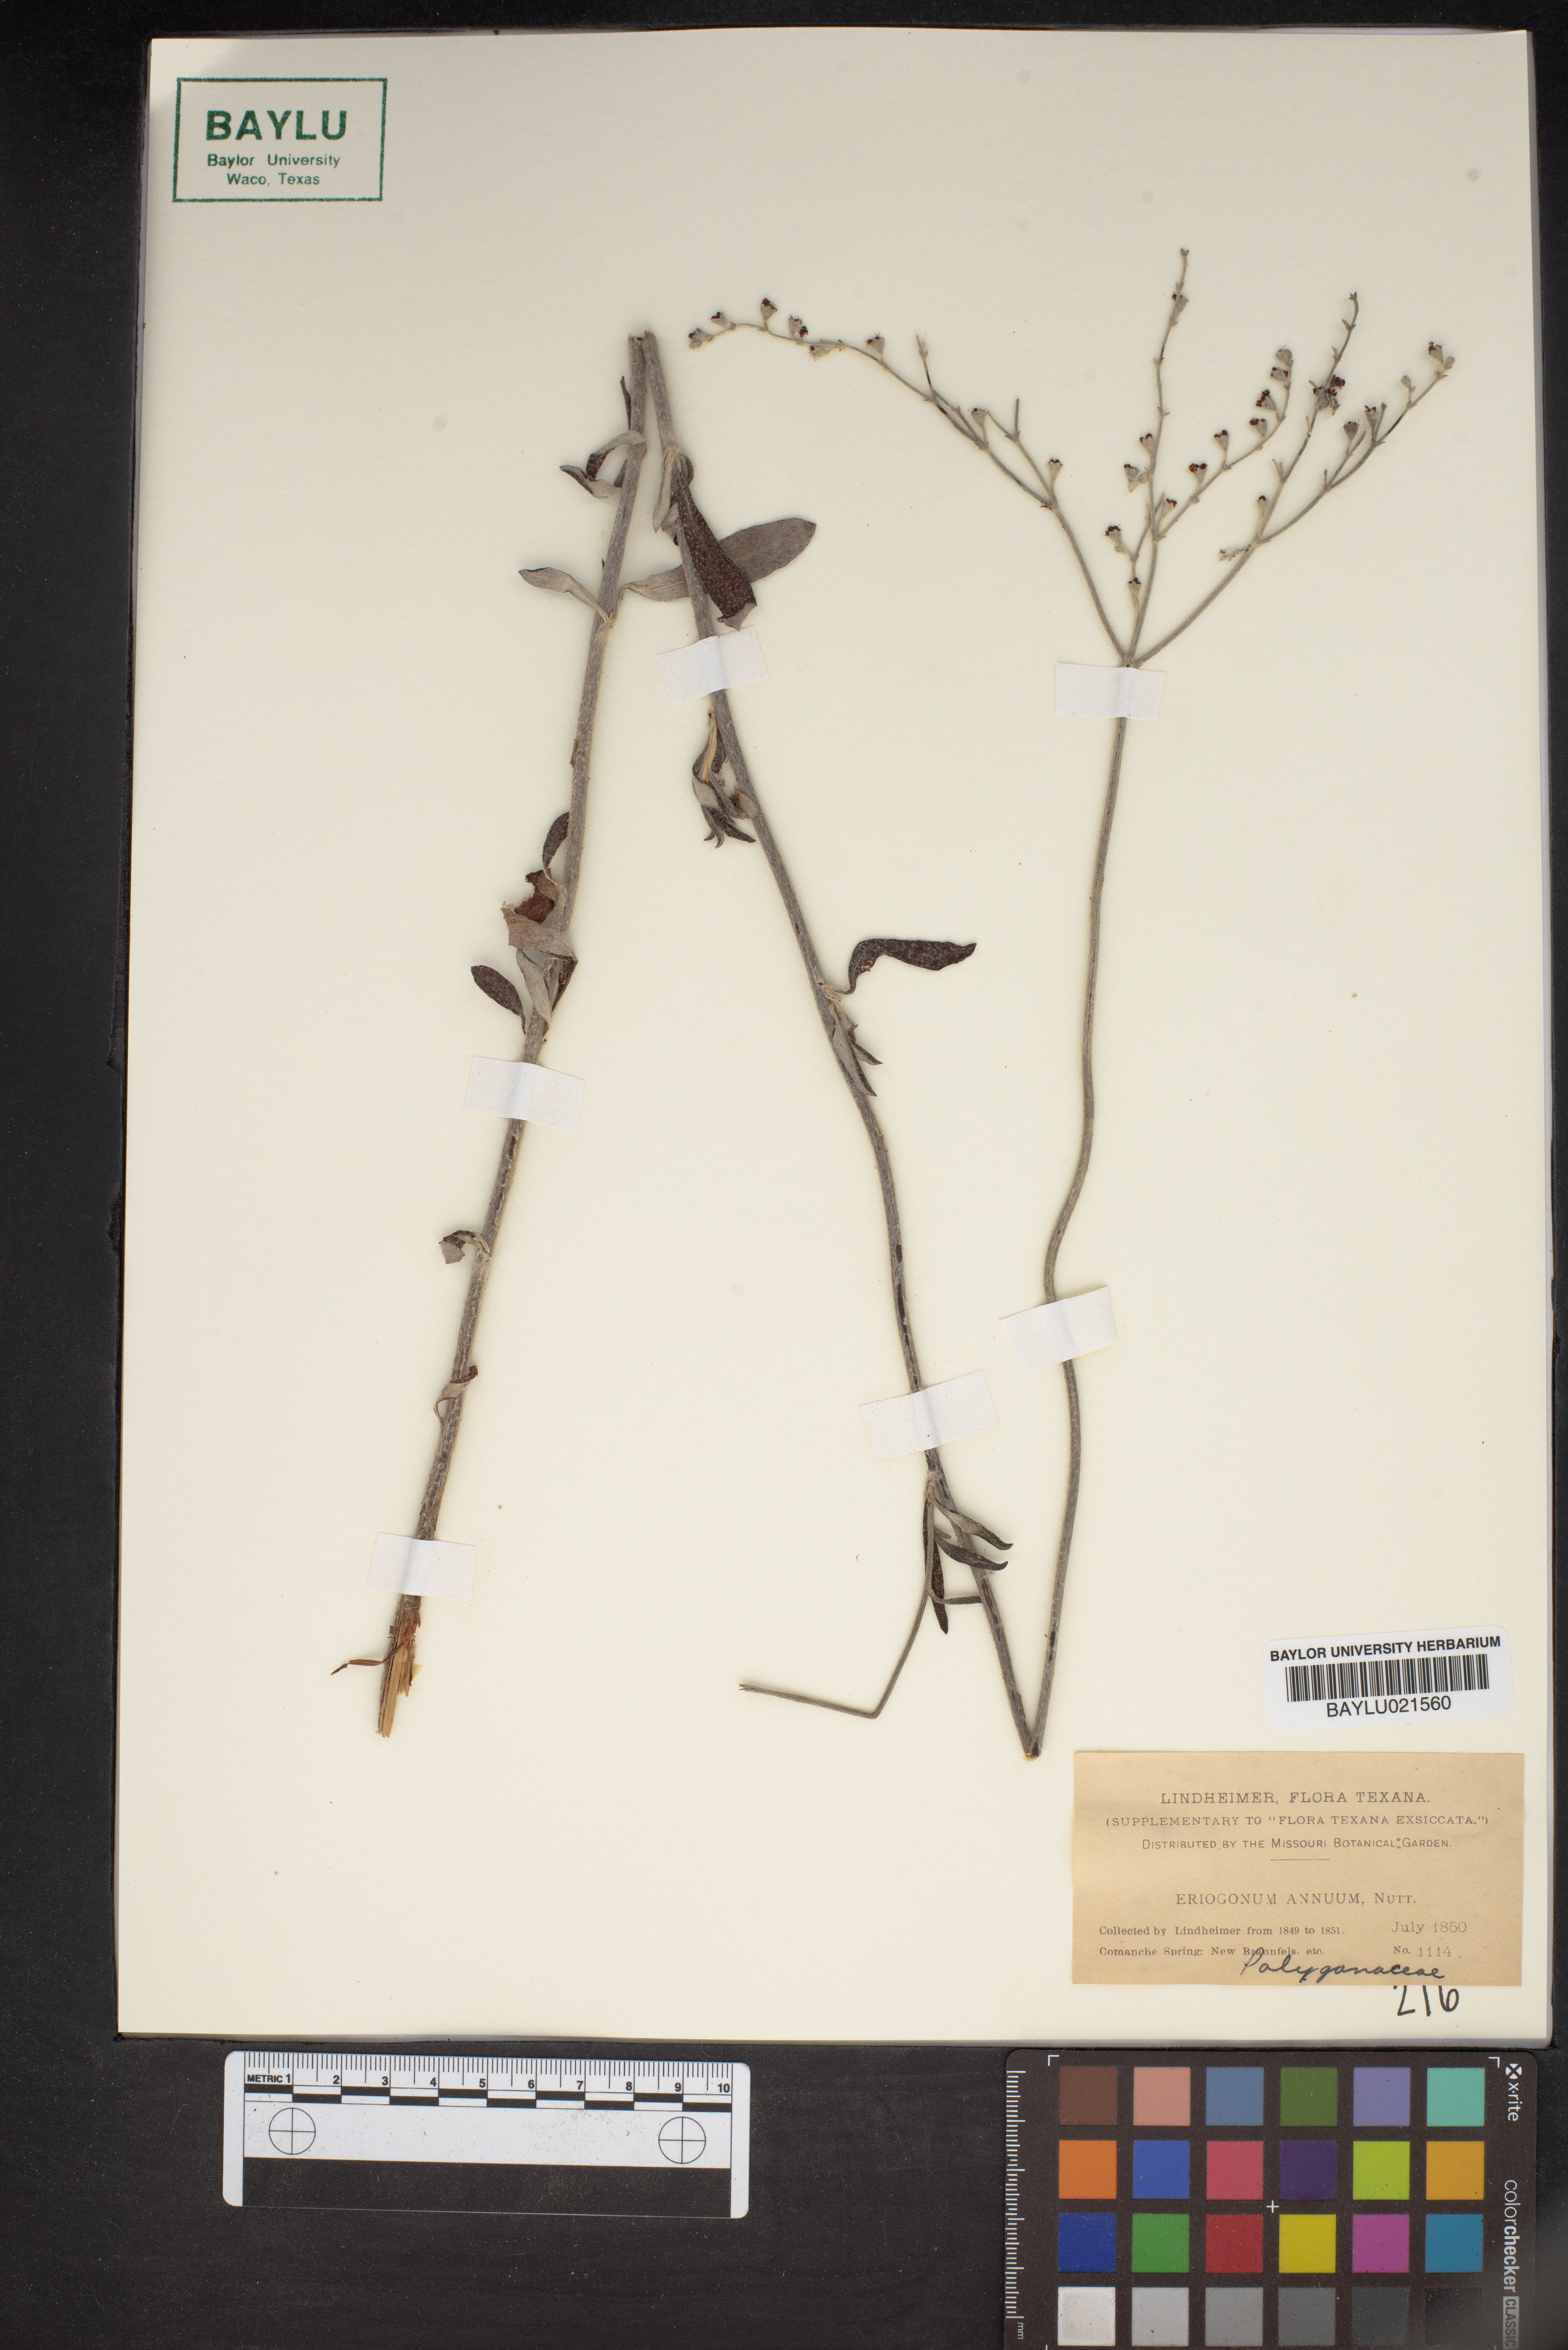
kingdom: Plantae
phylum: Tracheophyta
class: Magnoliopsida
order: Caryophyllales
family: Polygonaceae
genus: Eriogonum
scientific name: Eriogonum annuum
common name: Annual wild buckwheat
